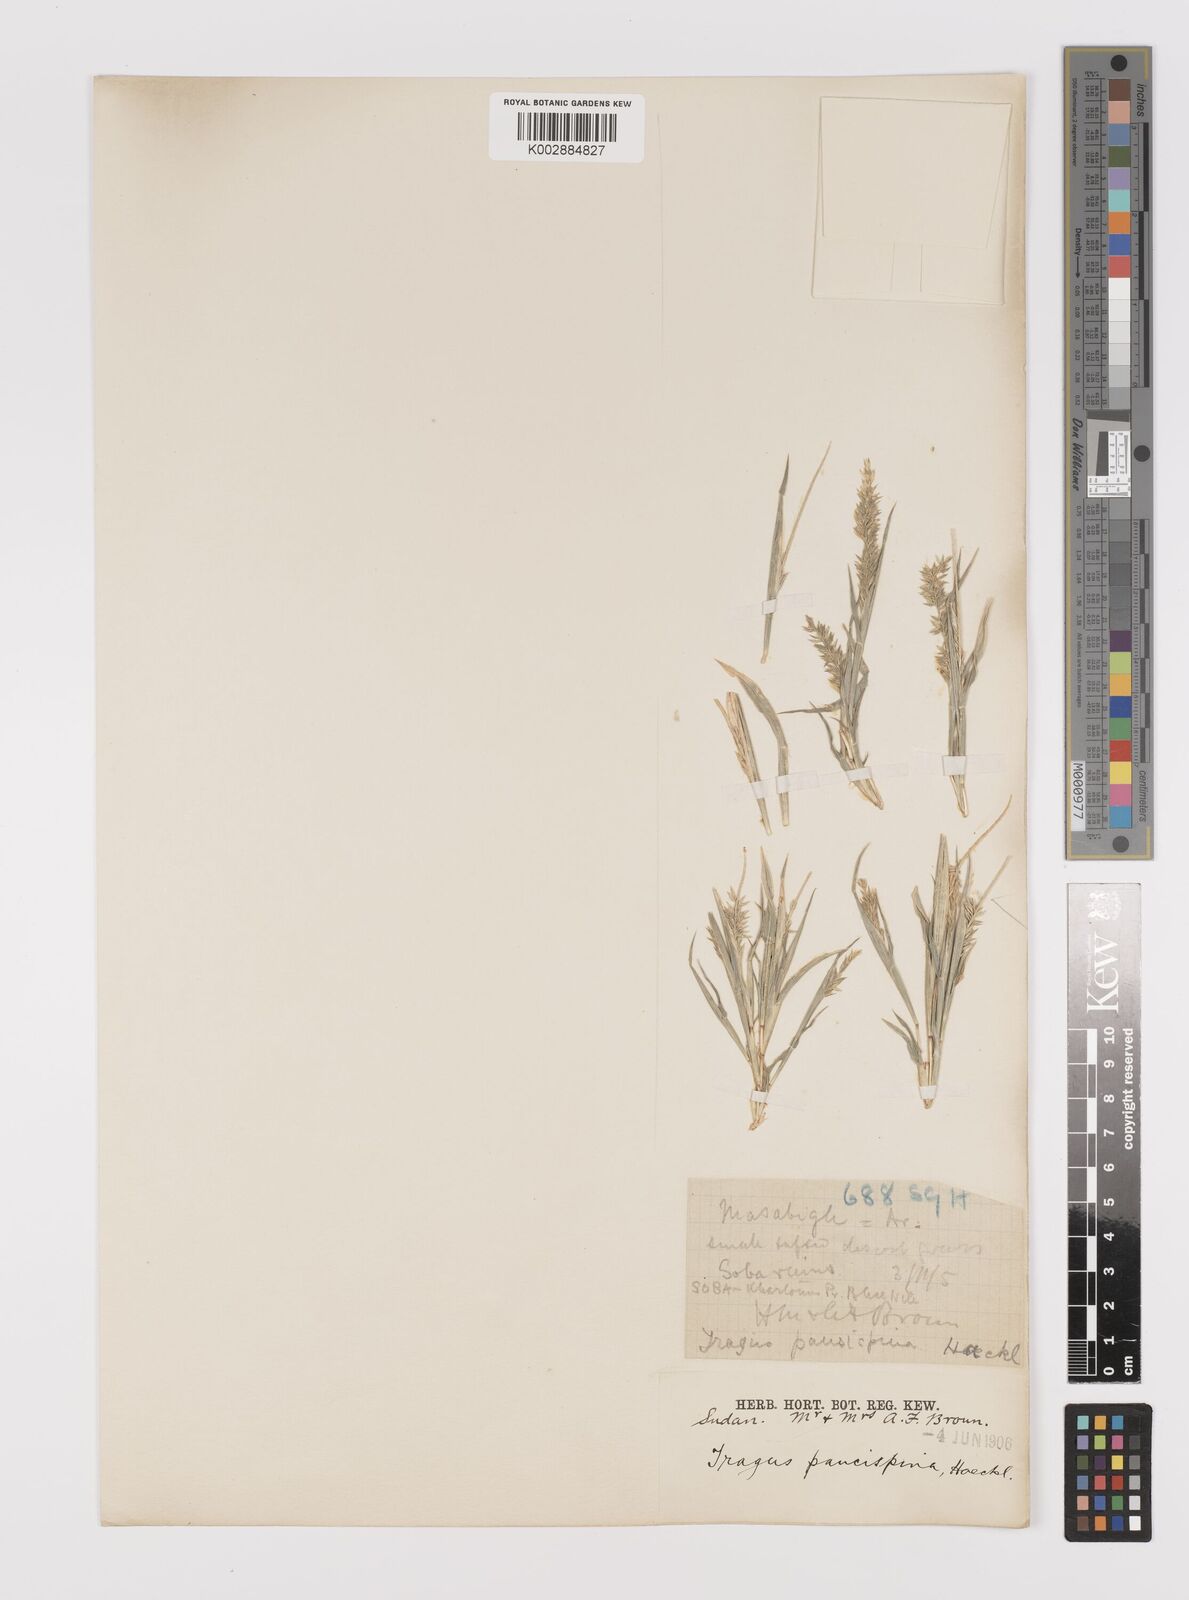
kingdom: Plantae
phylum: Tracheophyta
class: Liliopsida
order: Poales
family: Poaceae
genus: Tragus
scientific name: Tragus racemosus
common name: European bur-grass
